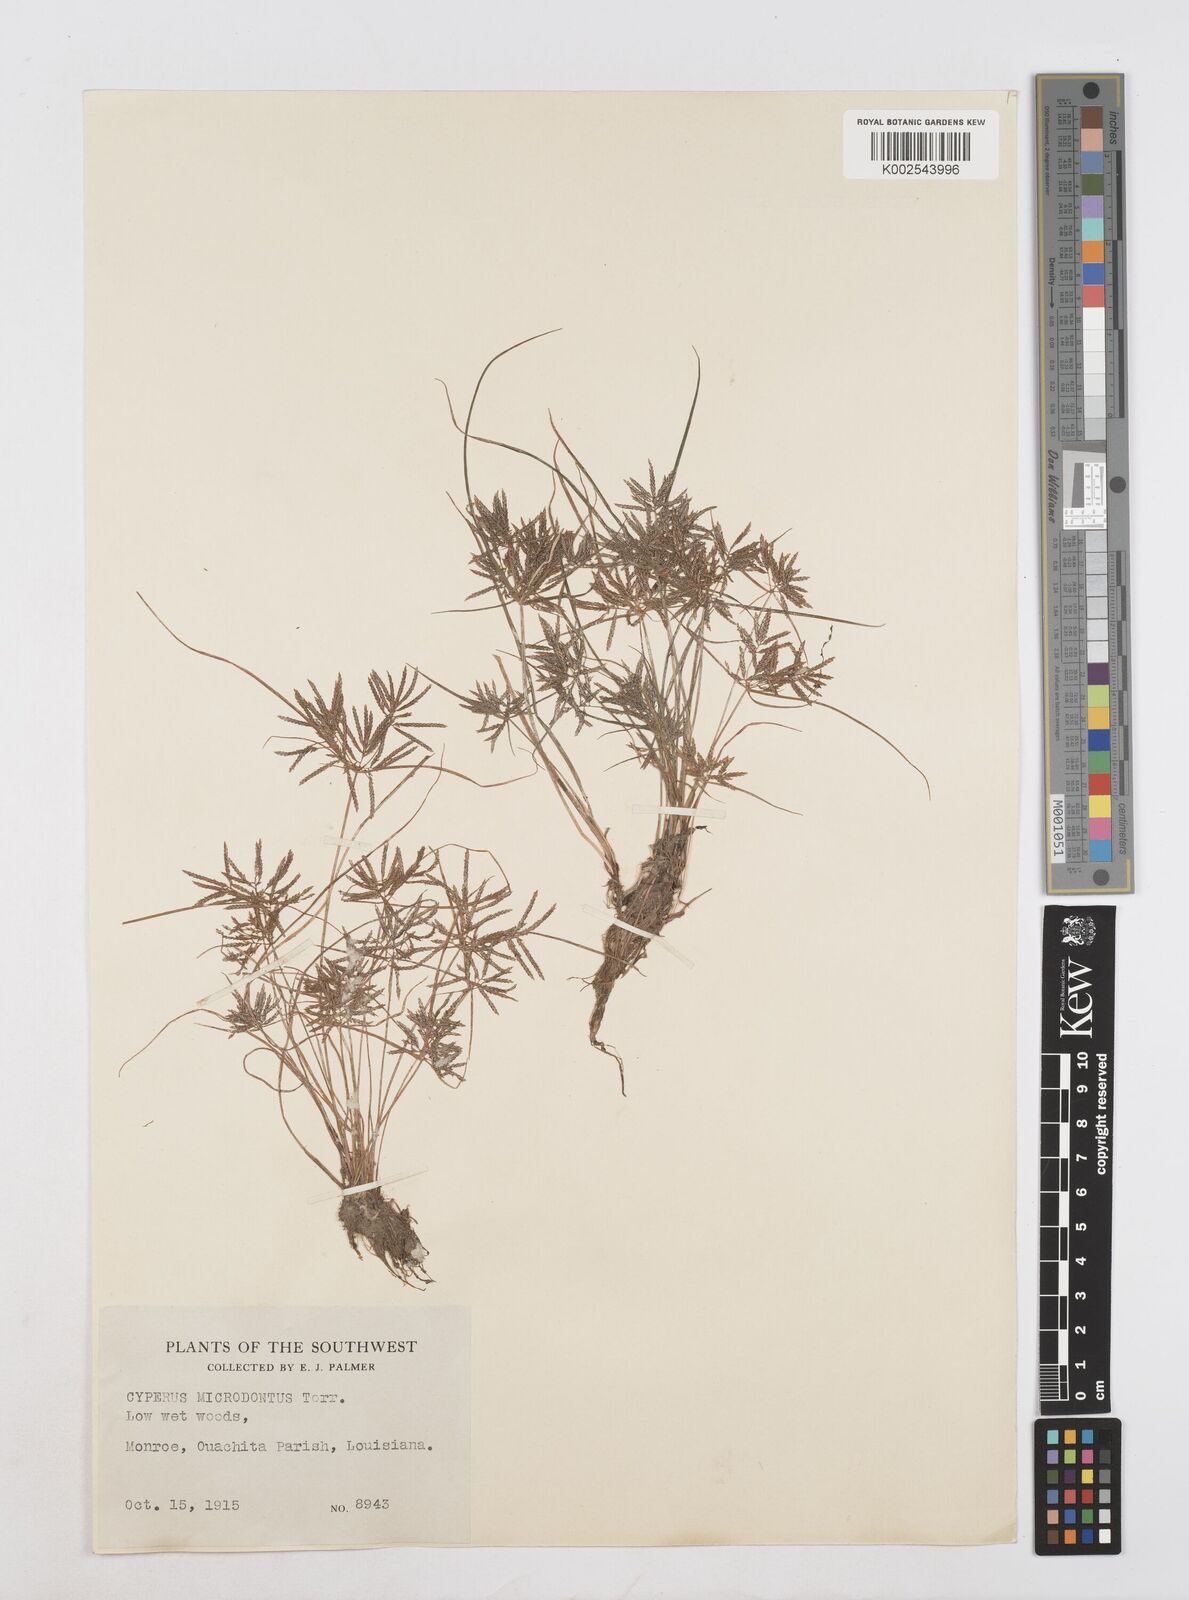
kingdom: Plantae
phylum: Tracheophyta
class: Liliopsida
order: Poales
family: Cyperaceae
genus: Cyperus
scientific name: Cyperus polystachyos
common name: Bunchy flat sedge
